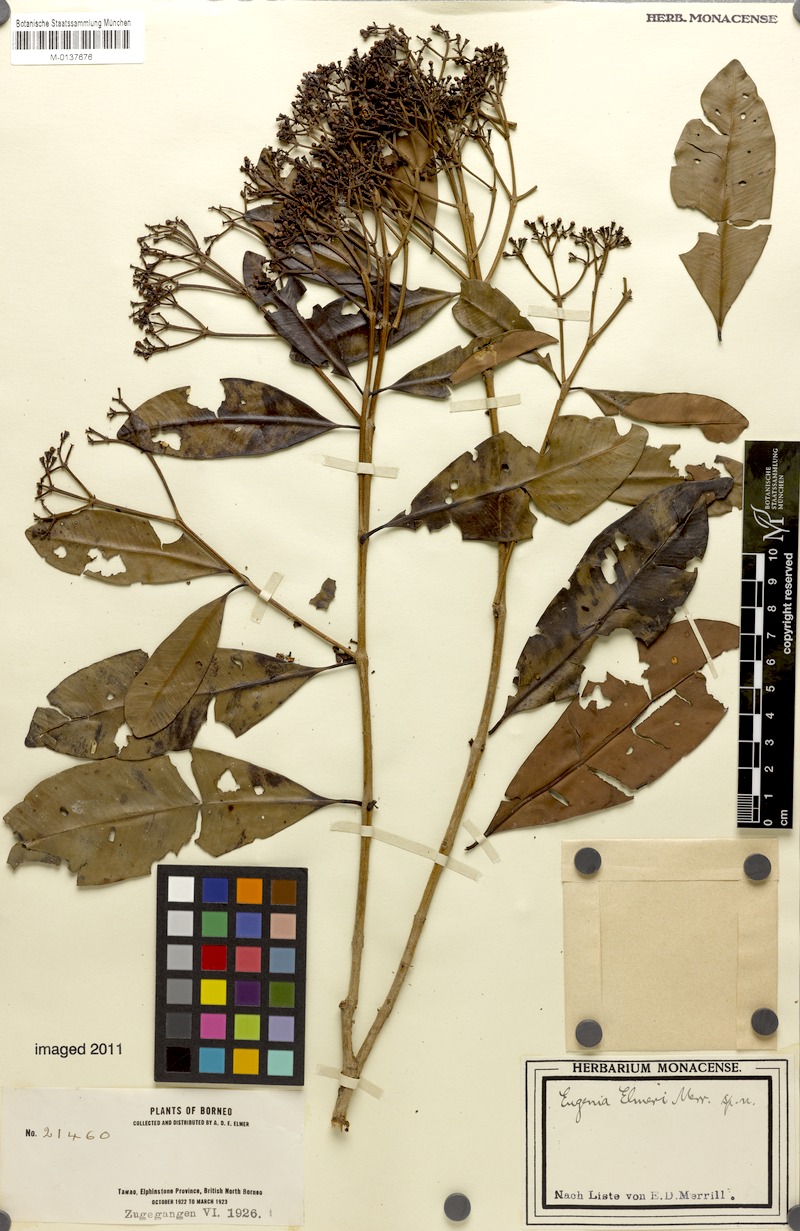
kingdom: Plantae
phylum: Tracheophyta
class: Magnoliopsida
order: Myrtales
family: Myrtaceae
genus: Syzygium
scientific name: Syzygium fastigiatum
